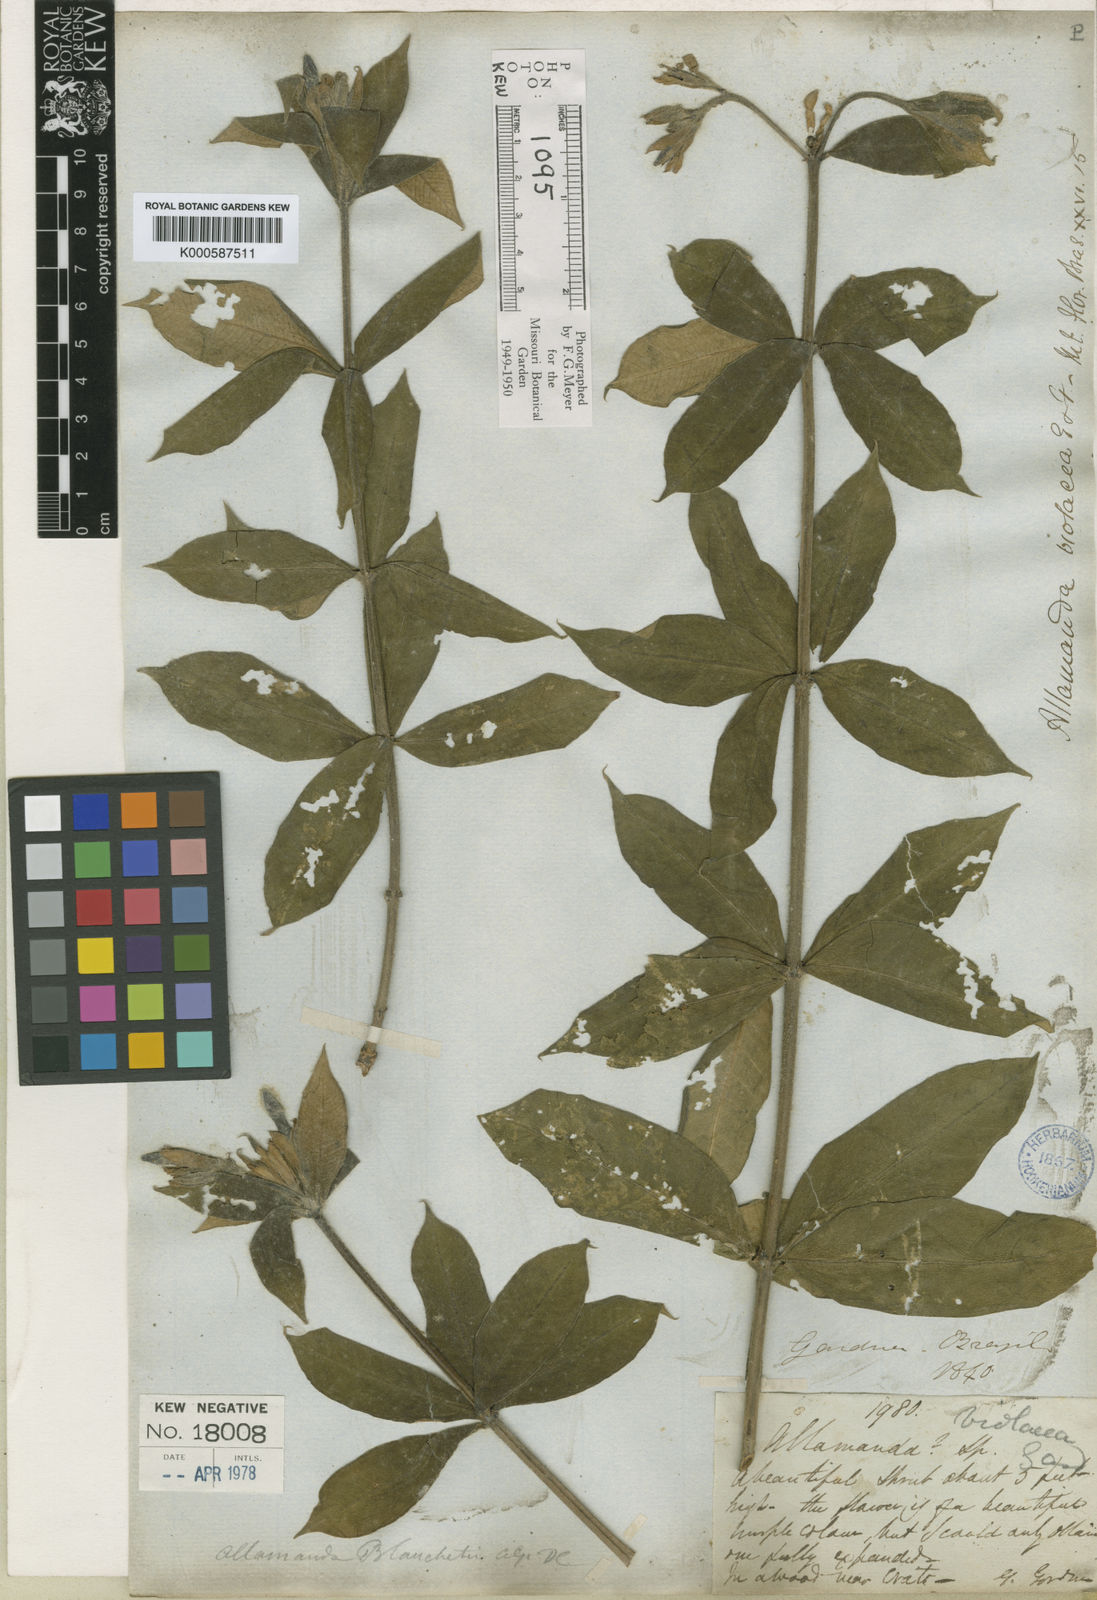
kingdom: Plantae
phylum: Tracheophyta
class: Magnoliopsida
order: Gentianales
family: Apocynaceae
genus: Allamanda
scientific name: Allamanda blanchetii
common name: Purple allamanda
